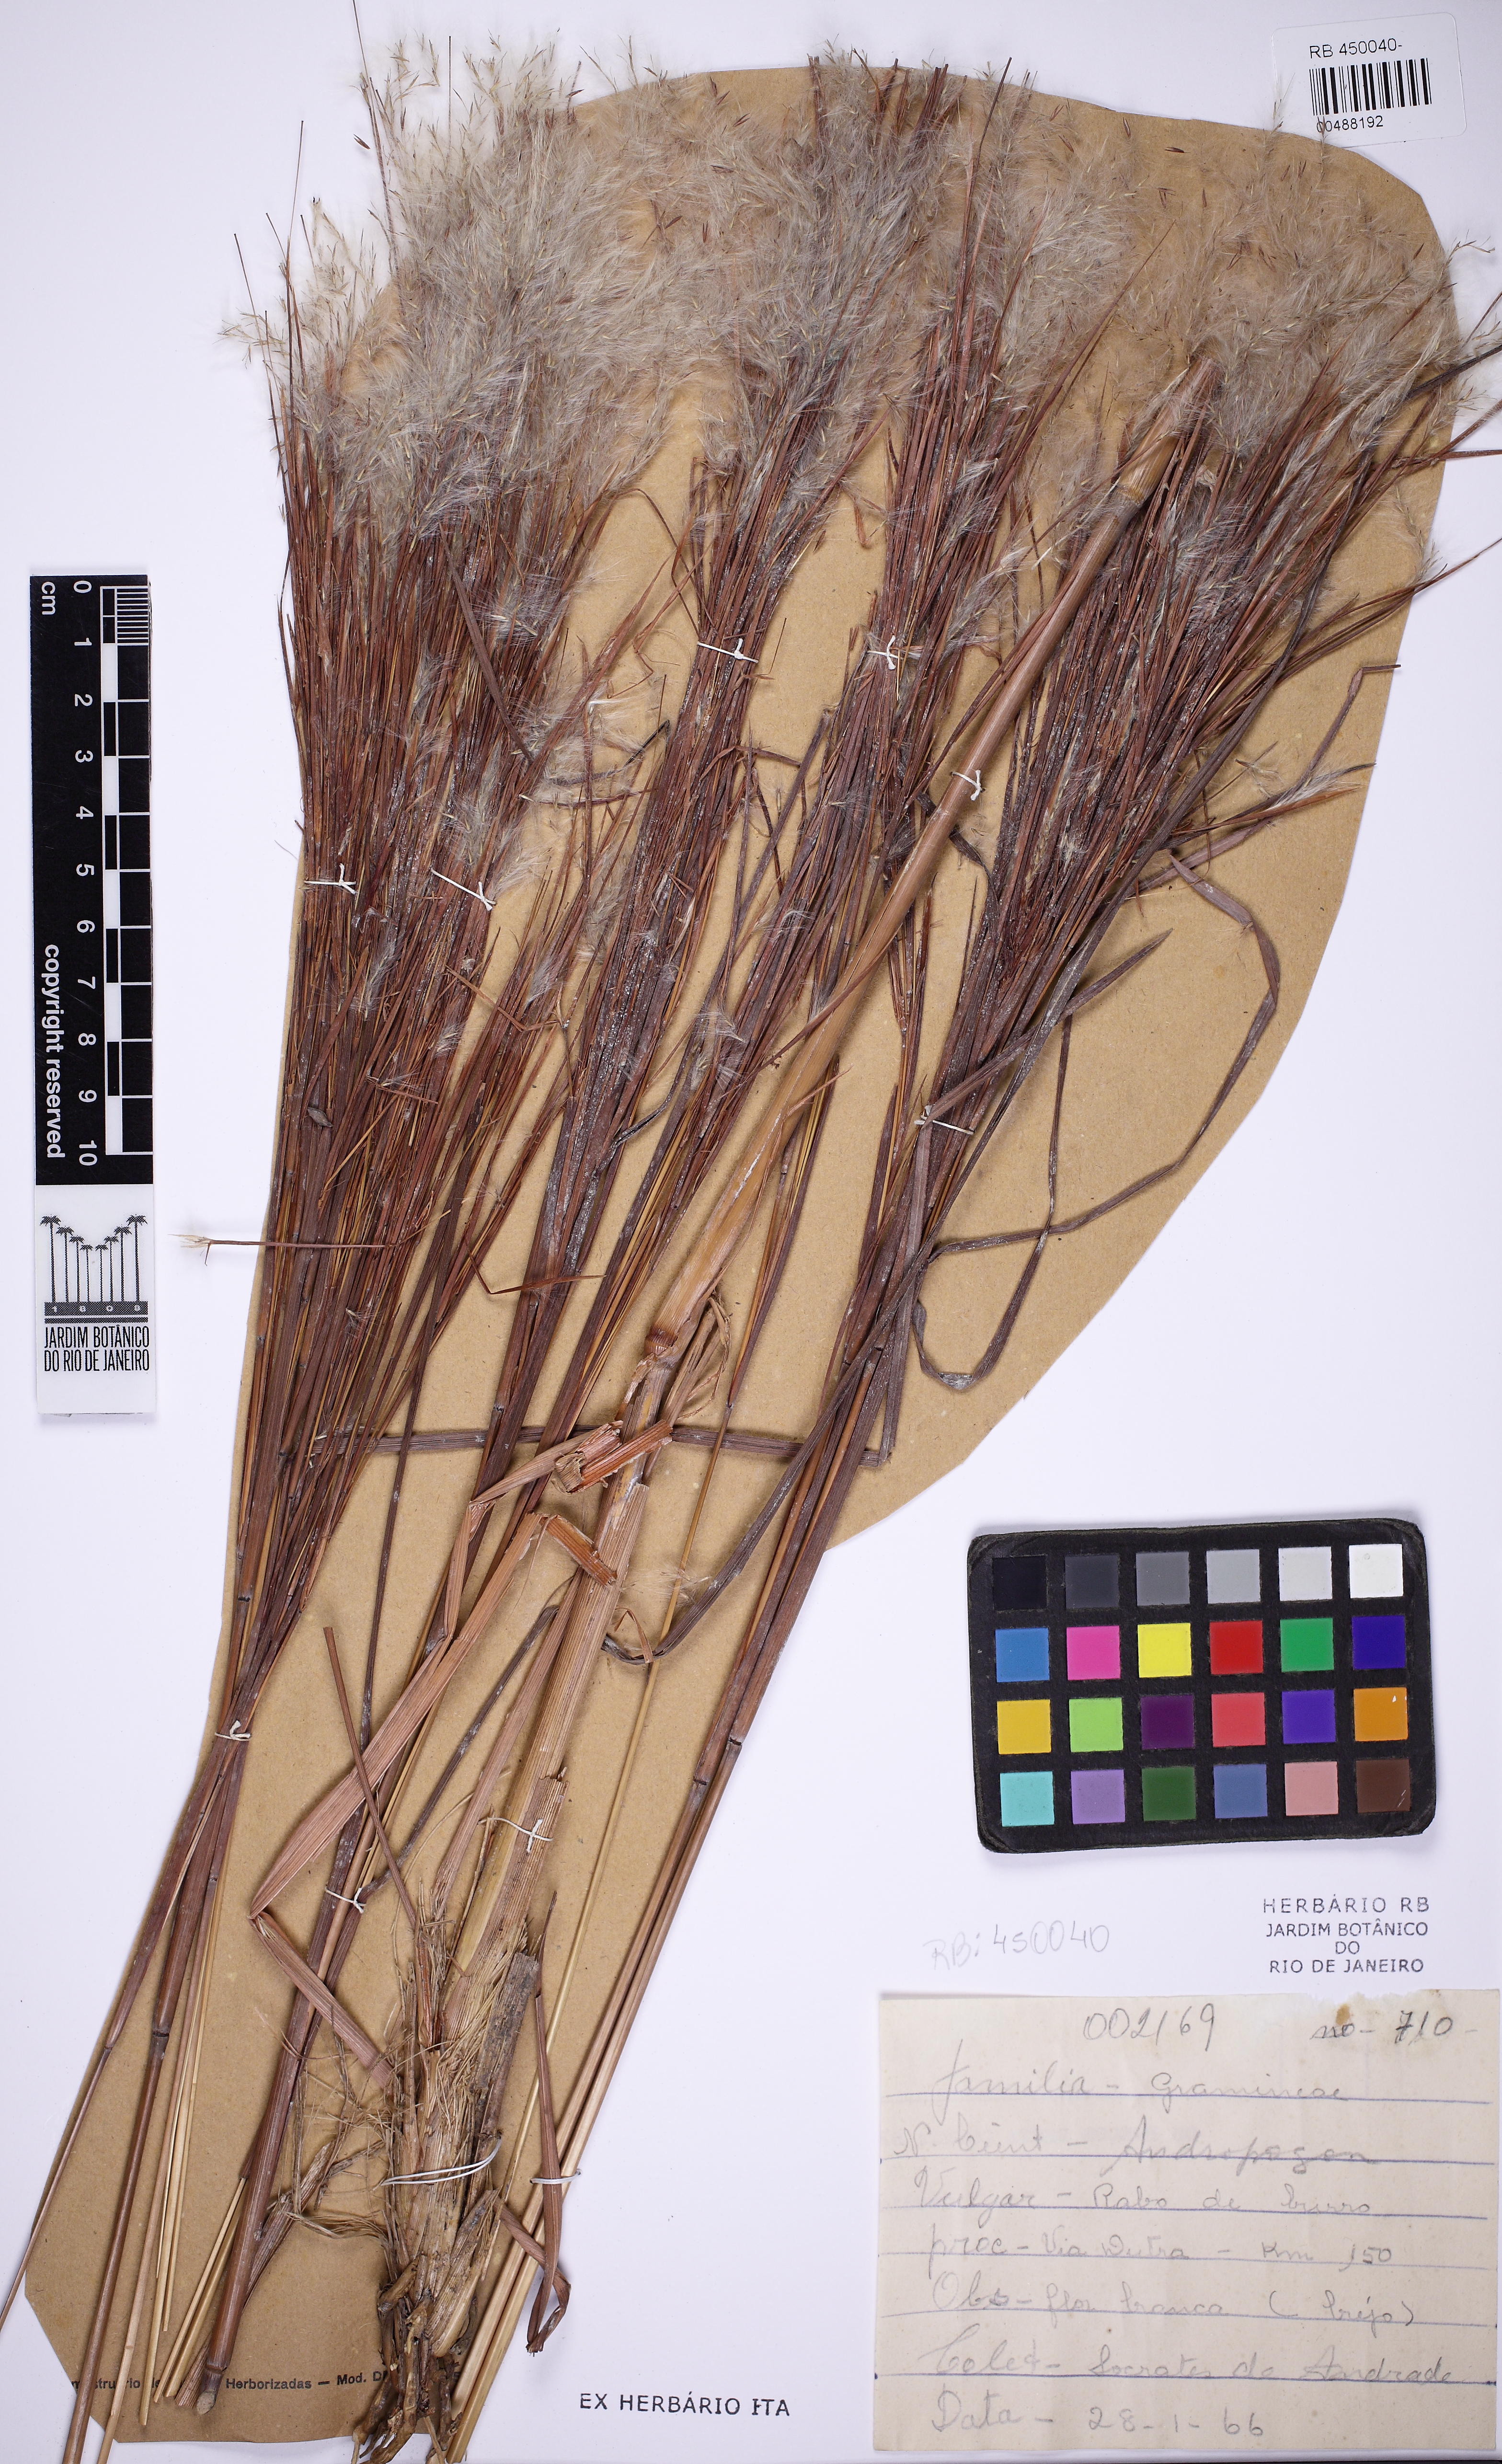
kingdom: Plantae
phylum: Tracheophyta
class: Liliopsida
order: Poales
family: Poaceae
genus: Andropogon
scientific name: Andropogon
